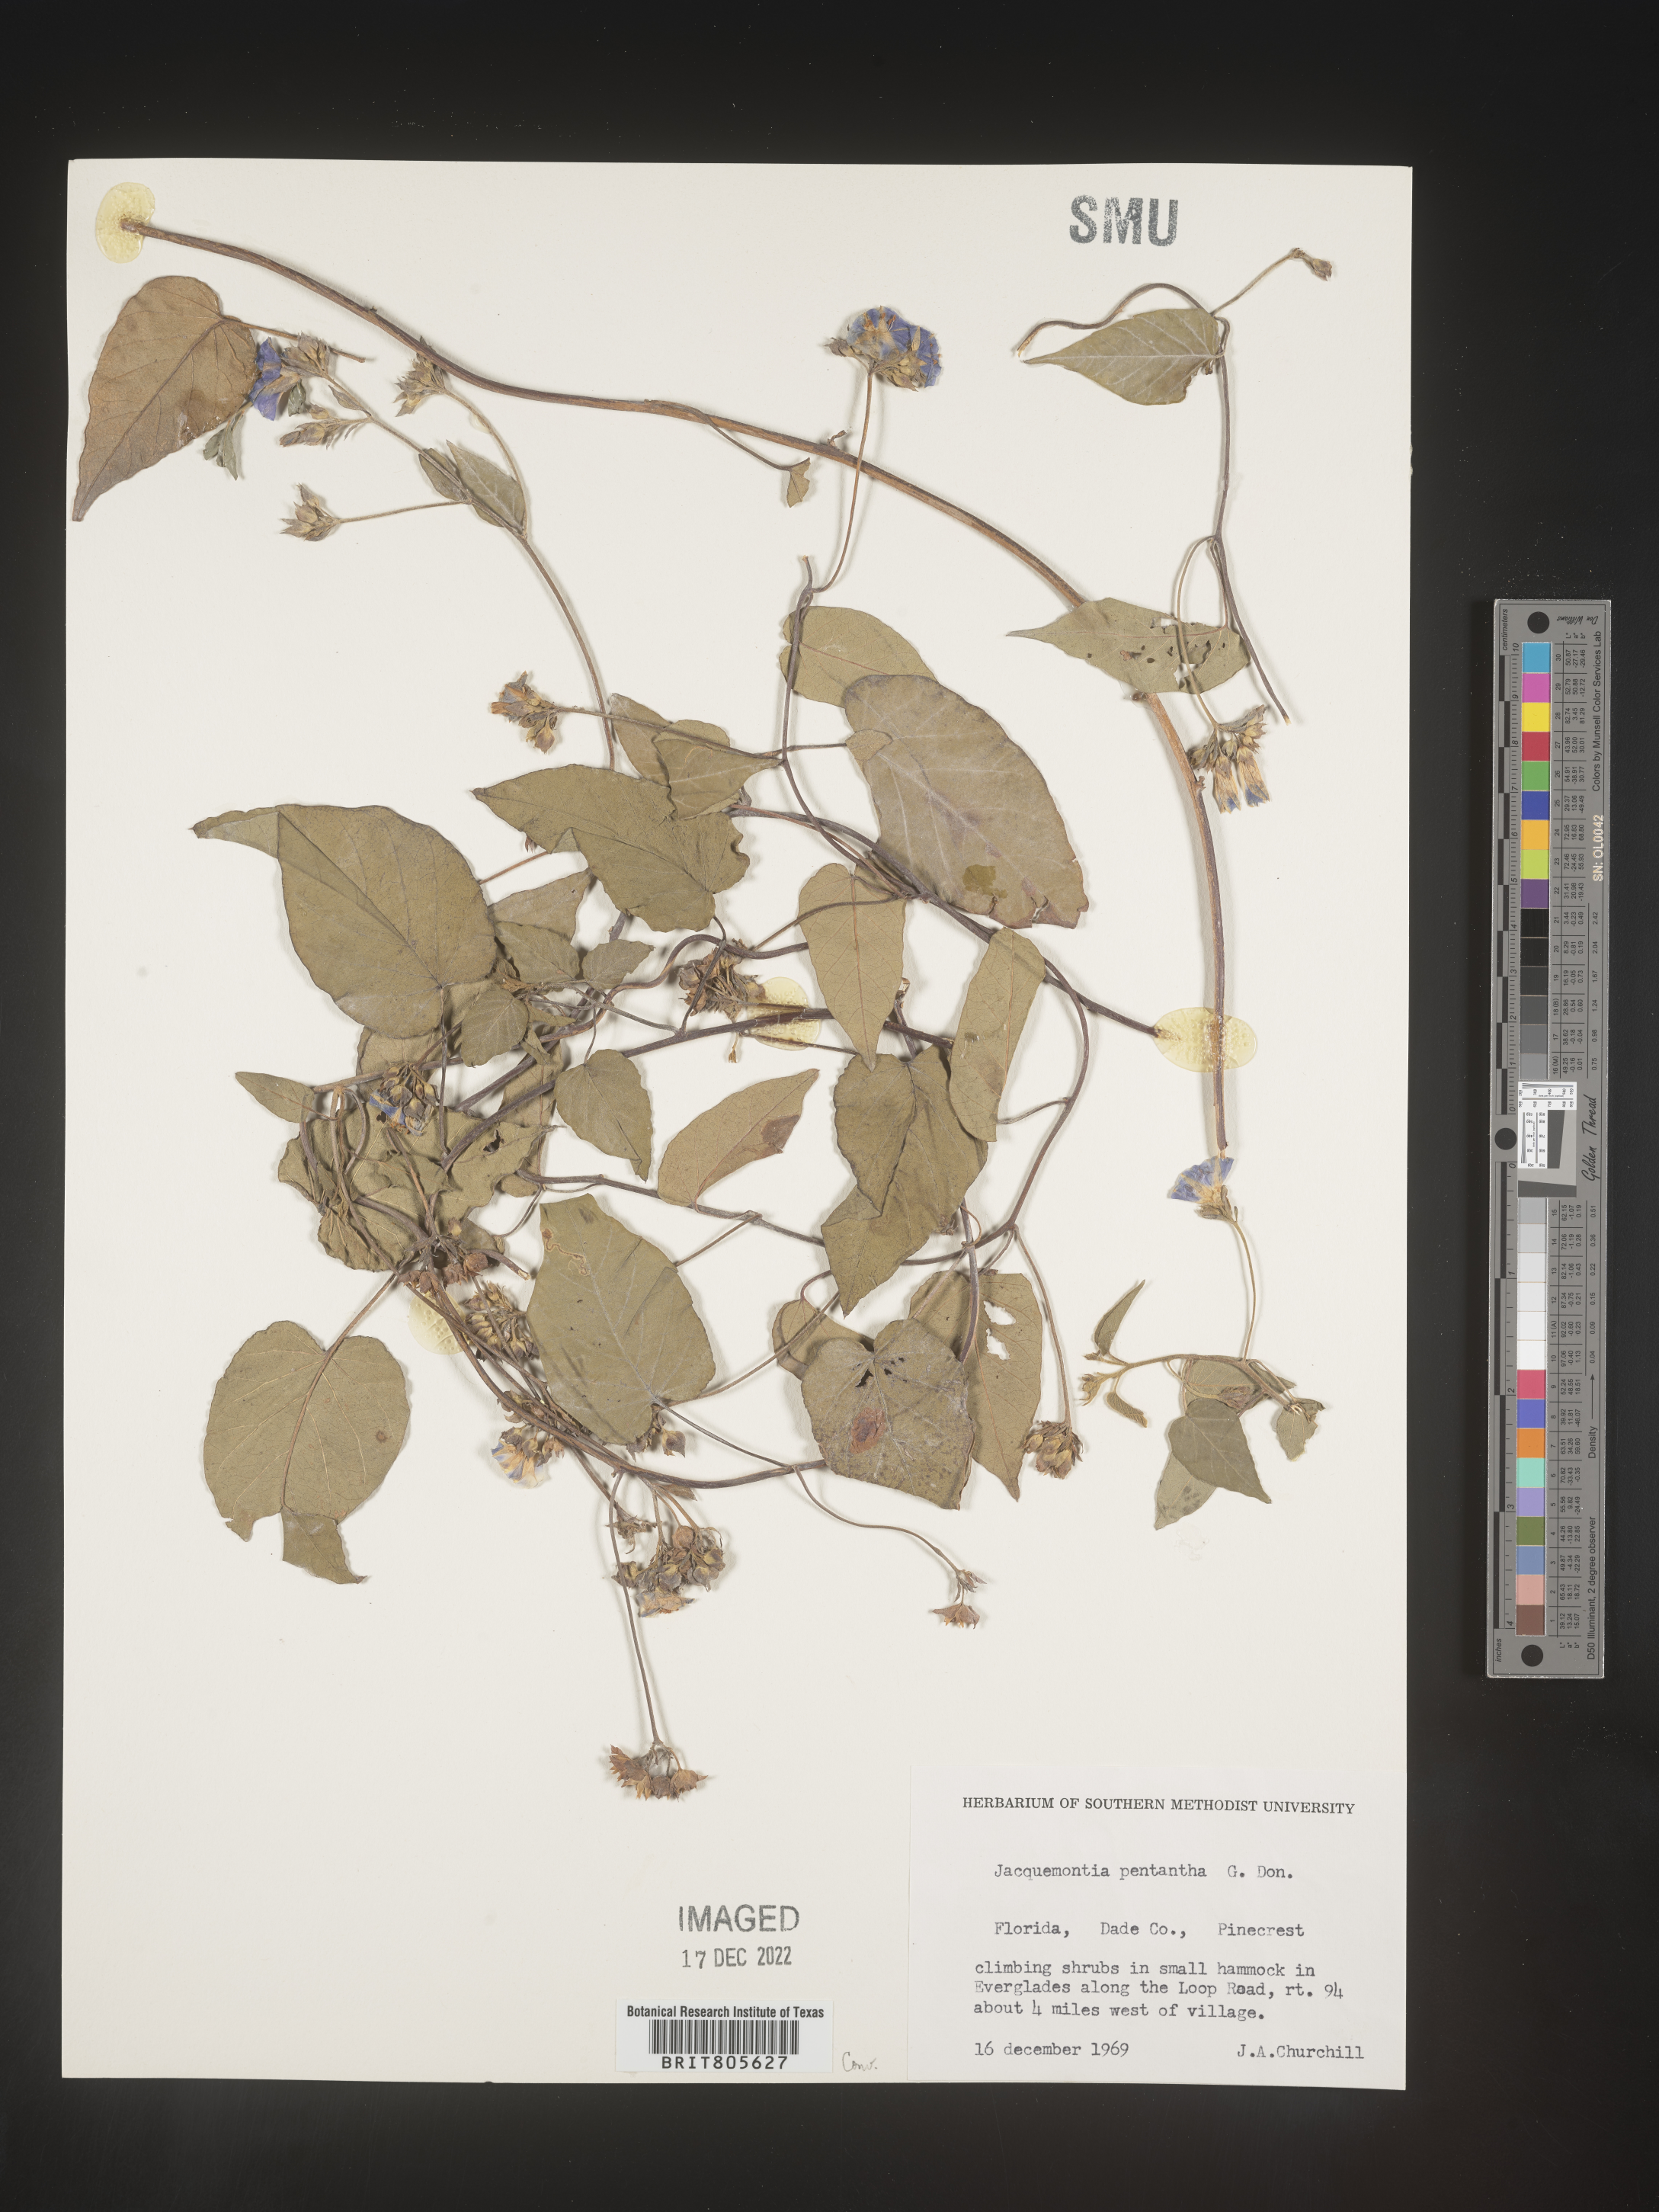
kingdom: Plantae
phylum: Tracheophyta
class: Magnoliopsida
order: Solanales
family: Convolvulaceae
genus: Jacquemontia
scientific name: Jacquemontia
